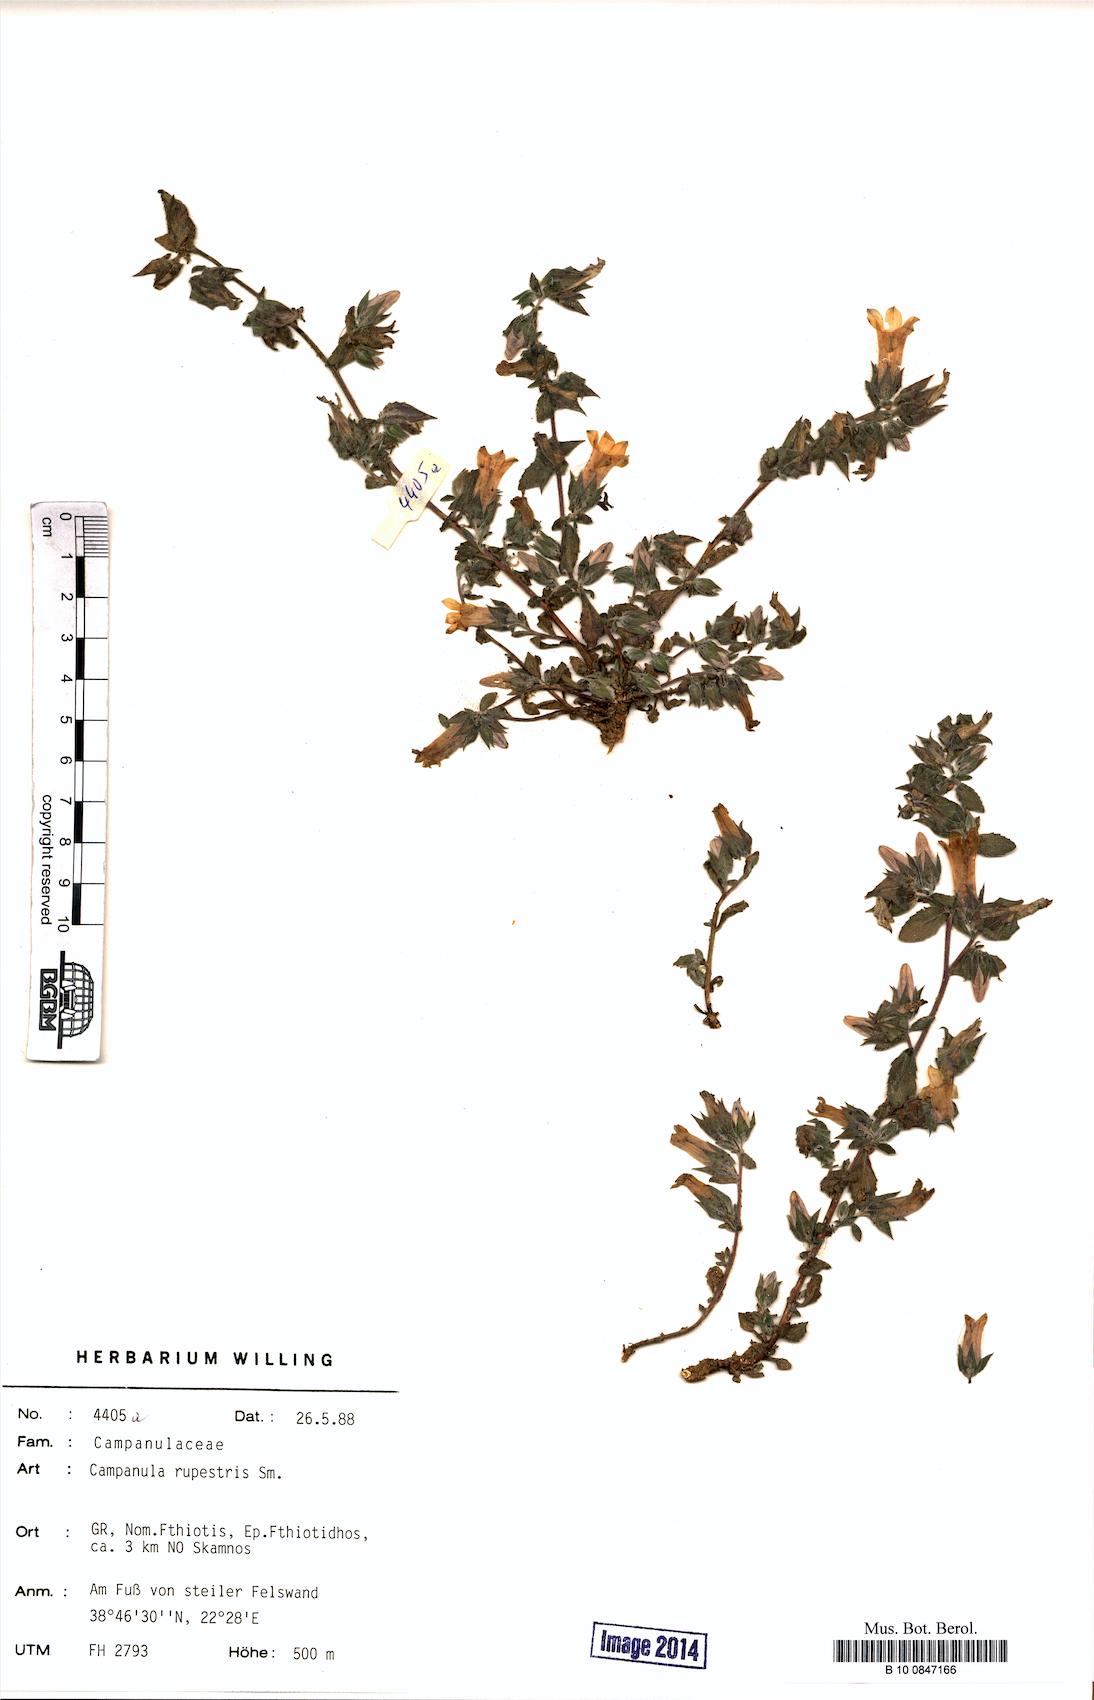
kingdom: Plantae
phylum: Tracheophyta
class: Magnoliopsida
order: Asterales
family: Campanulaceae
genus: Campanula
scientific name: Campanula rupestris
